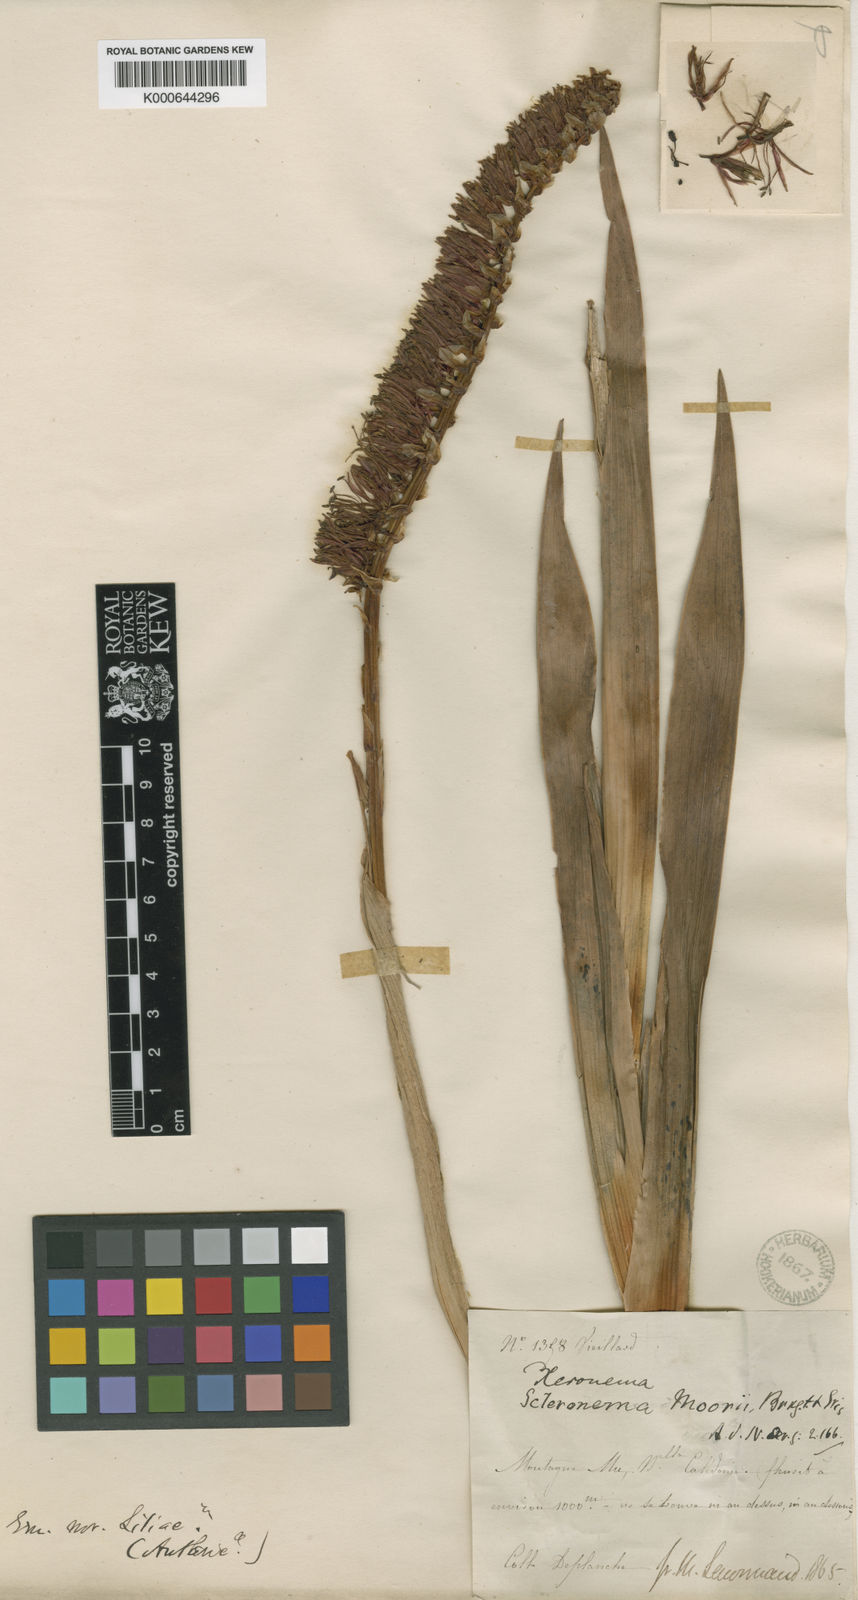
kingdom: Plantae
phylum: Tracheophyta
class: Liliopsida
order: Asparagales
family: Xeronemataceae
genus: Xeronema
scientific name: Xeronema moorei
